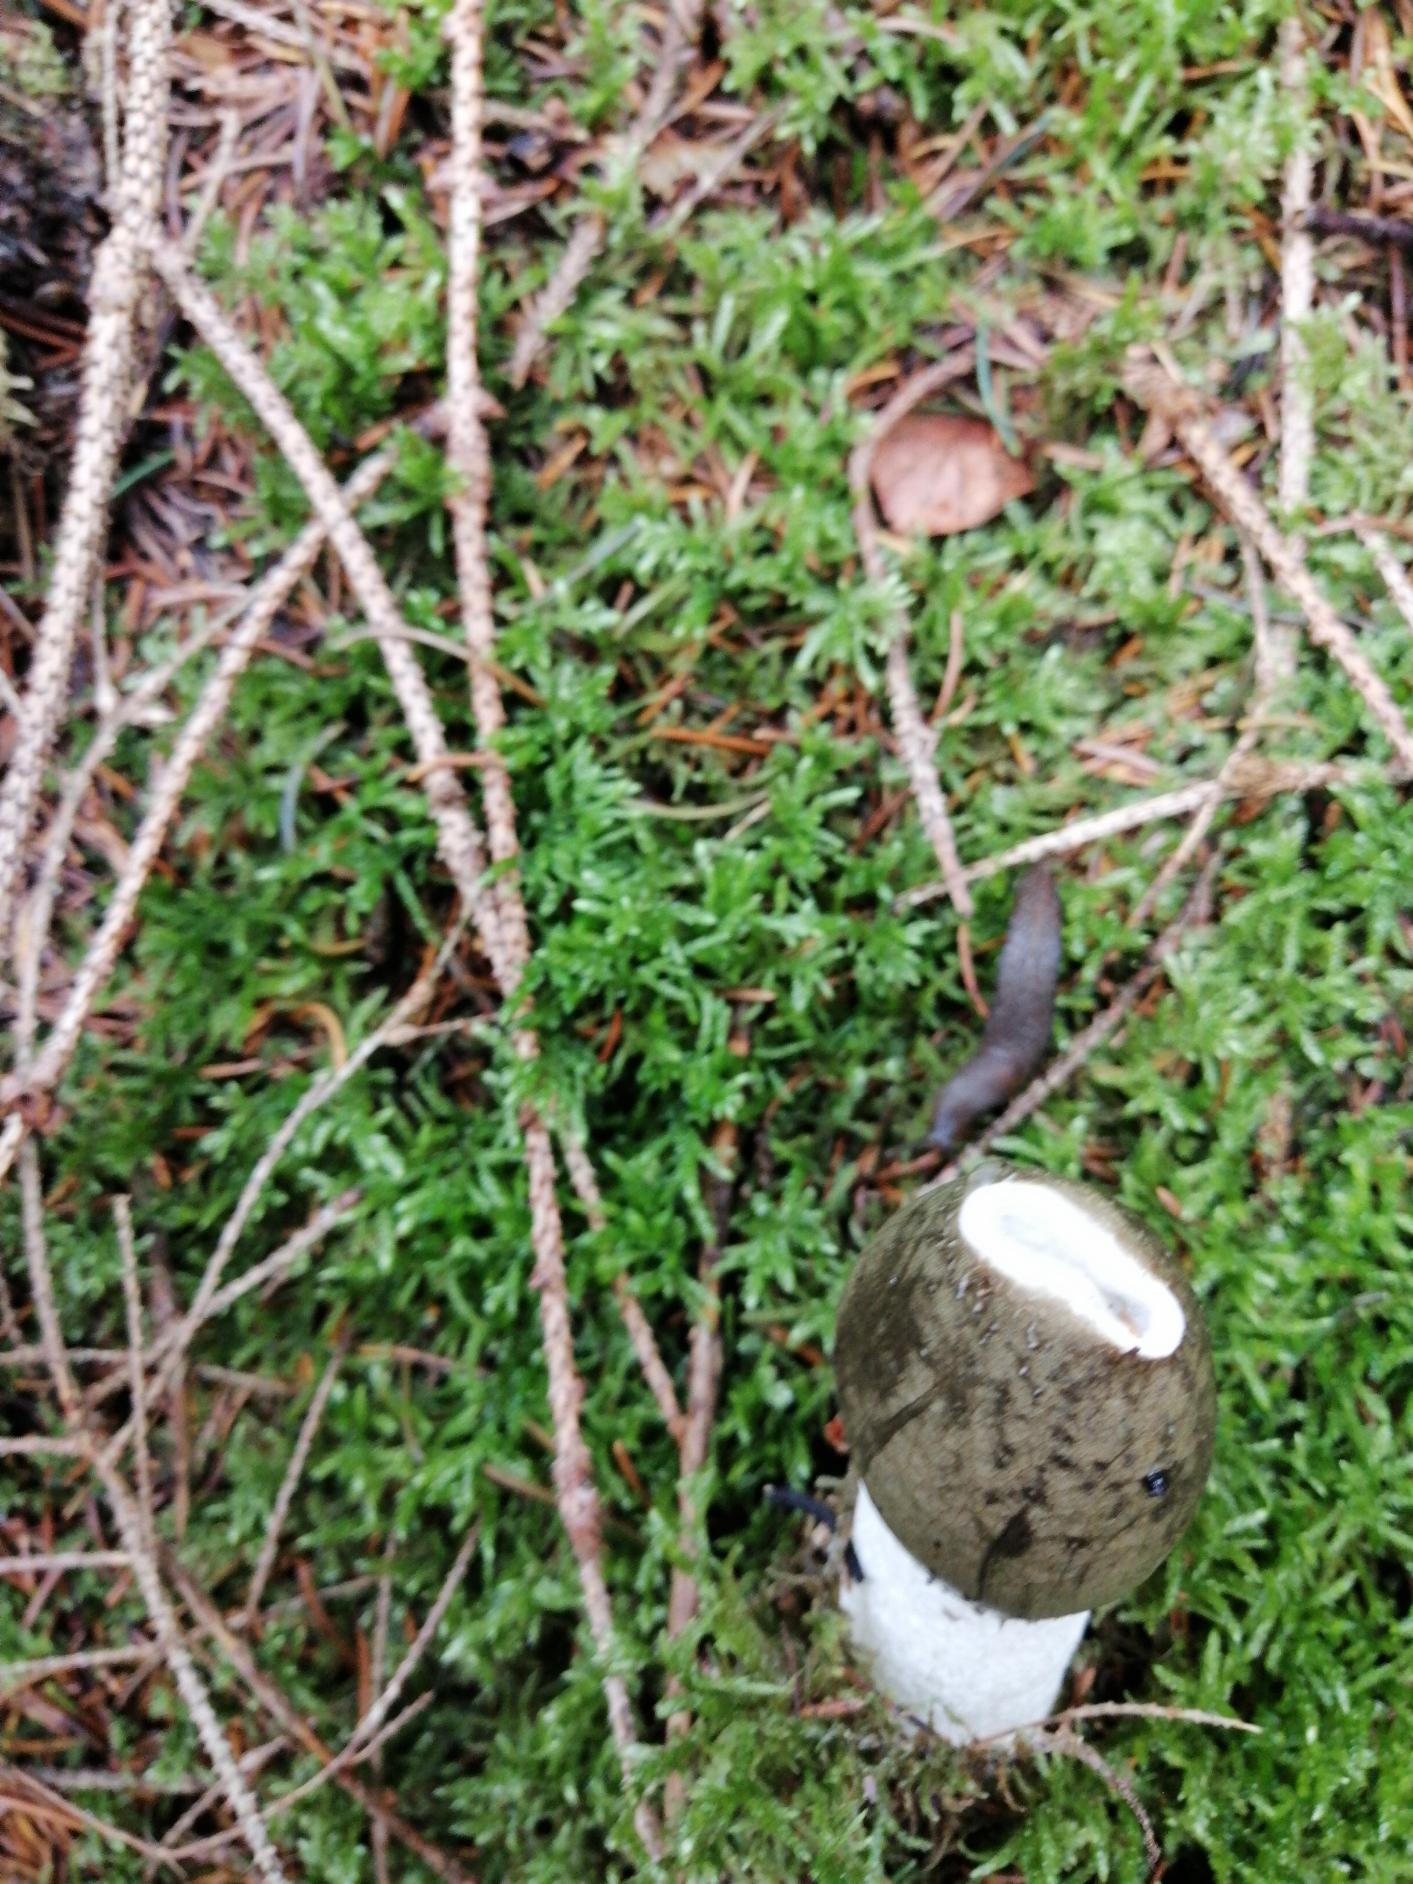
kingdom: Fungi
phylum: Basidiomycota
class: Agaricomycetes
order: Phallales
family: Phallaceae
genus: Phallus
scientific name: Phallus impudicus
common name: Almindelig stinksvamp
